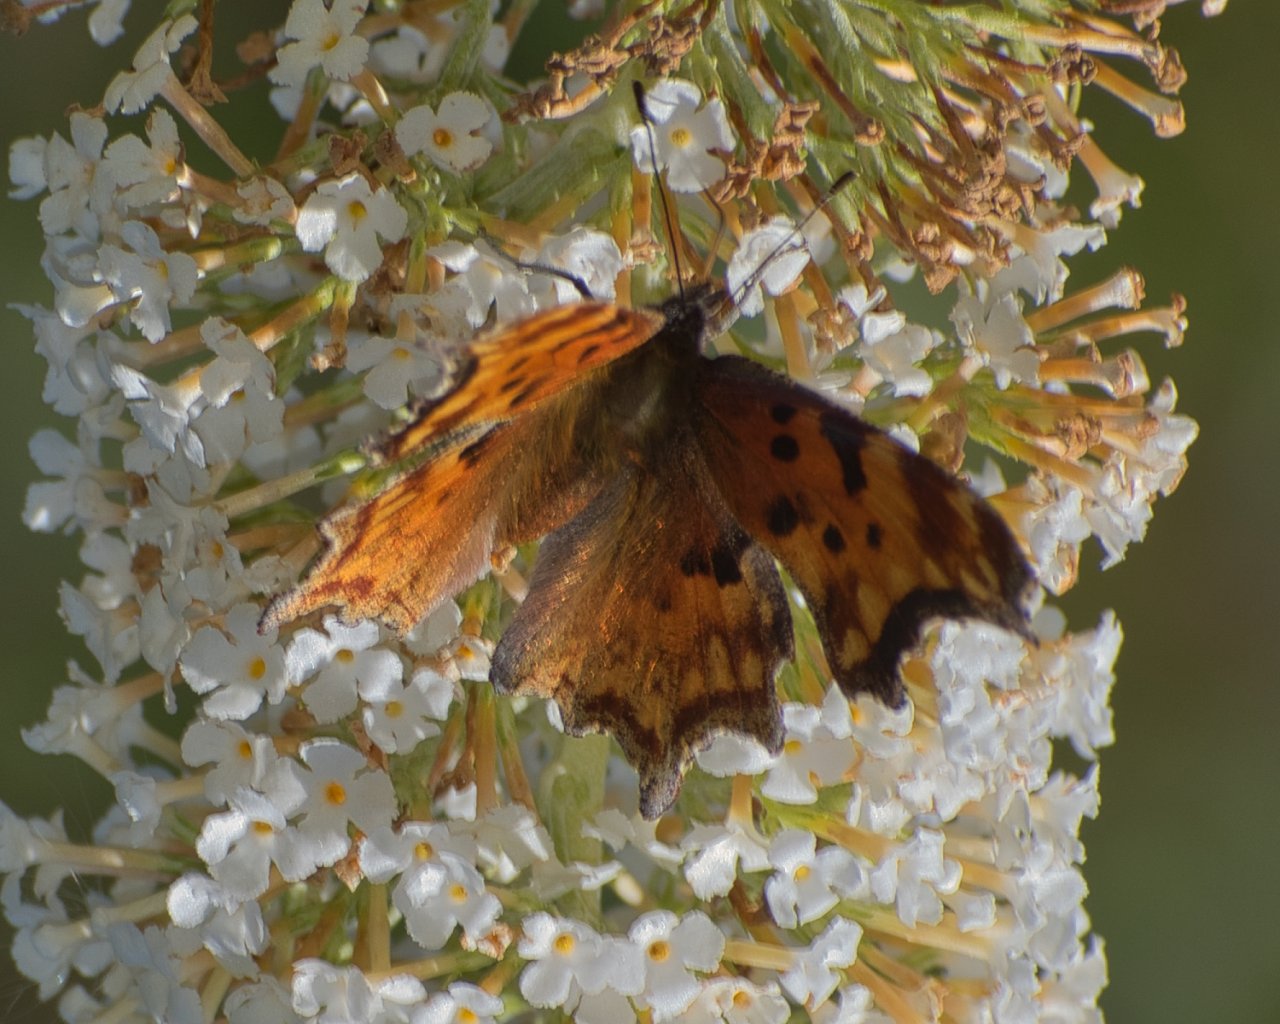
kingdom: Animalia
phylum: Arthropoda
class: Insecta
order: Lepidoptera
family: Nymphalidae
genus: Polygonia
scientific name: Polygonia gracilis
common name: Hoary Comma
